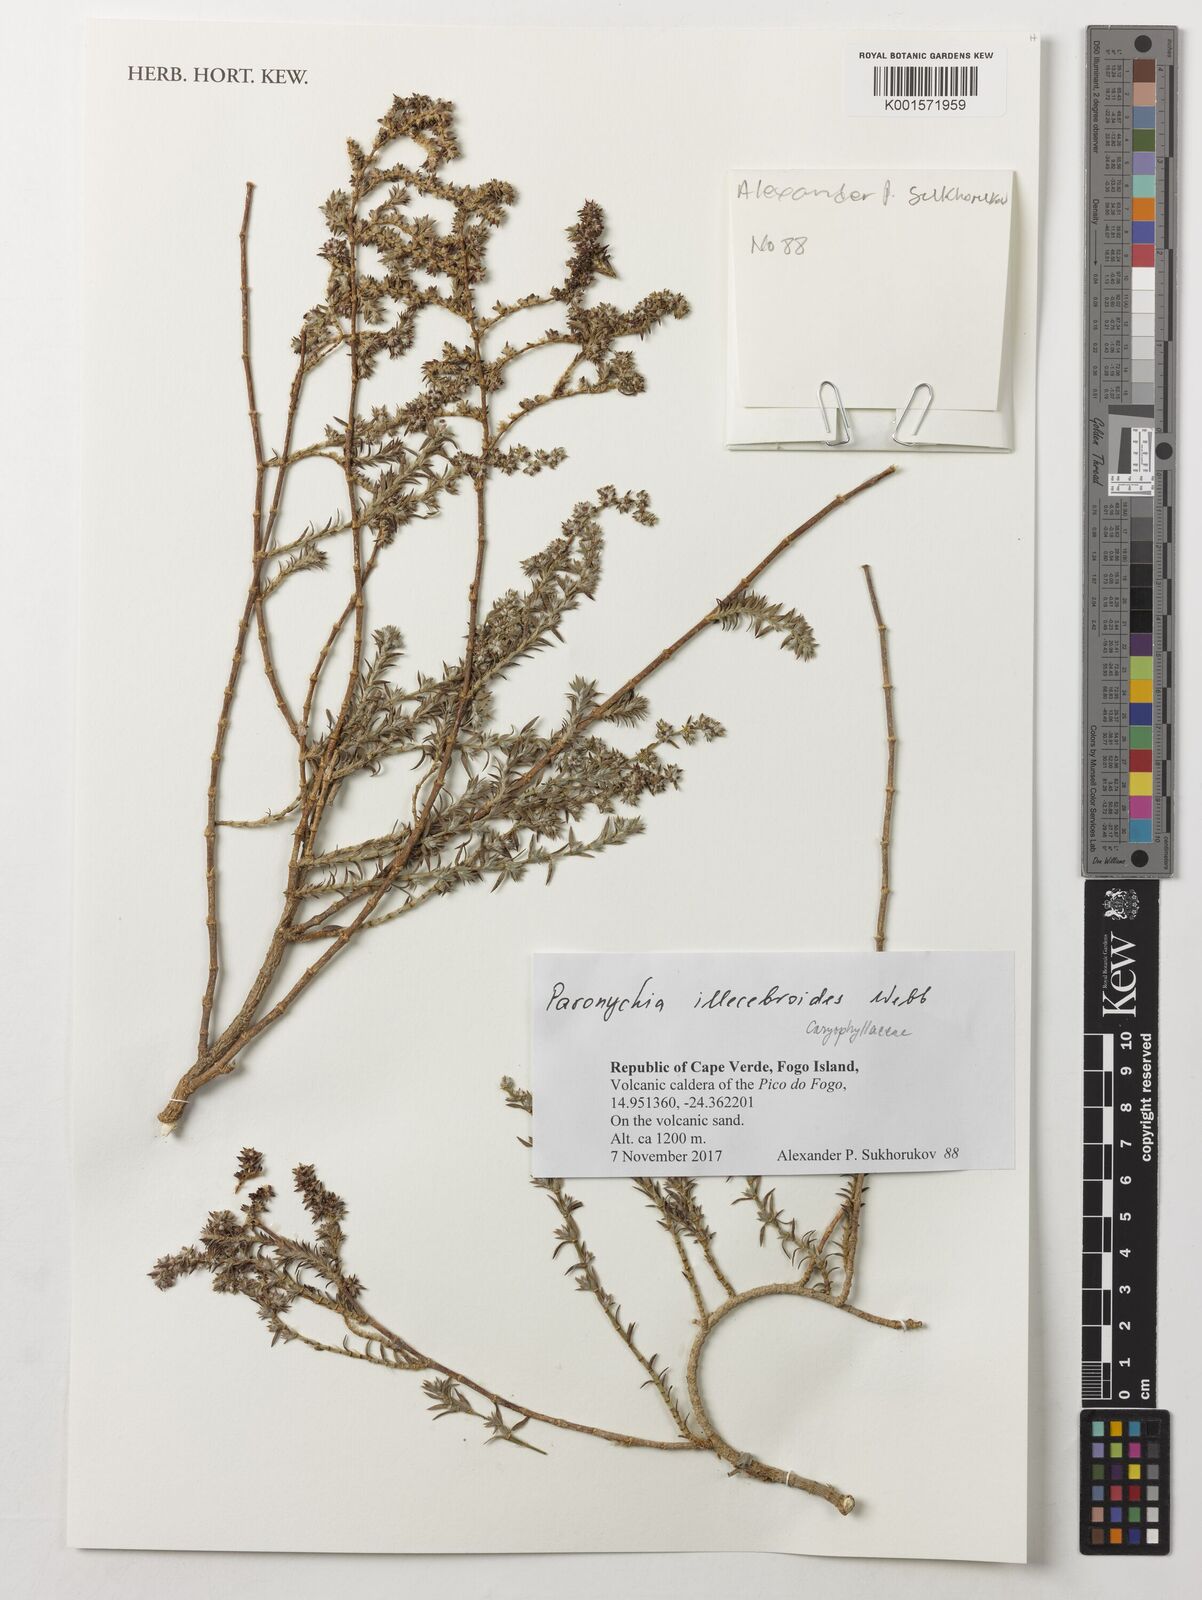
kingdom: Plantae
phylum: Tracheophyta
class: Magnoliopsida
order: Caryophyllales
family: Caryophyllaceae
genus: Paronychia
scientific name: Paronychia illecebroides
